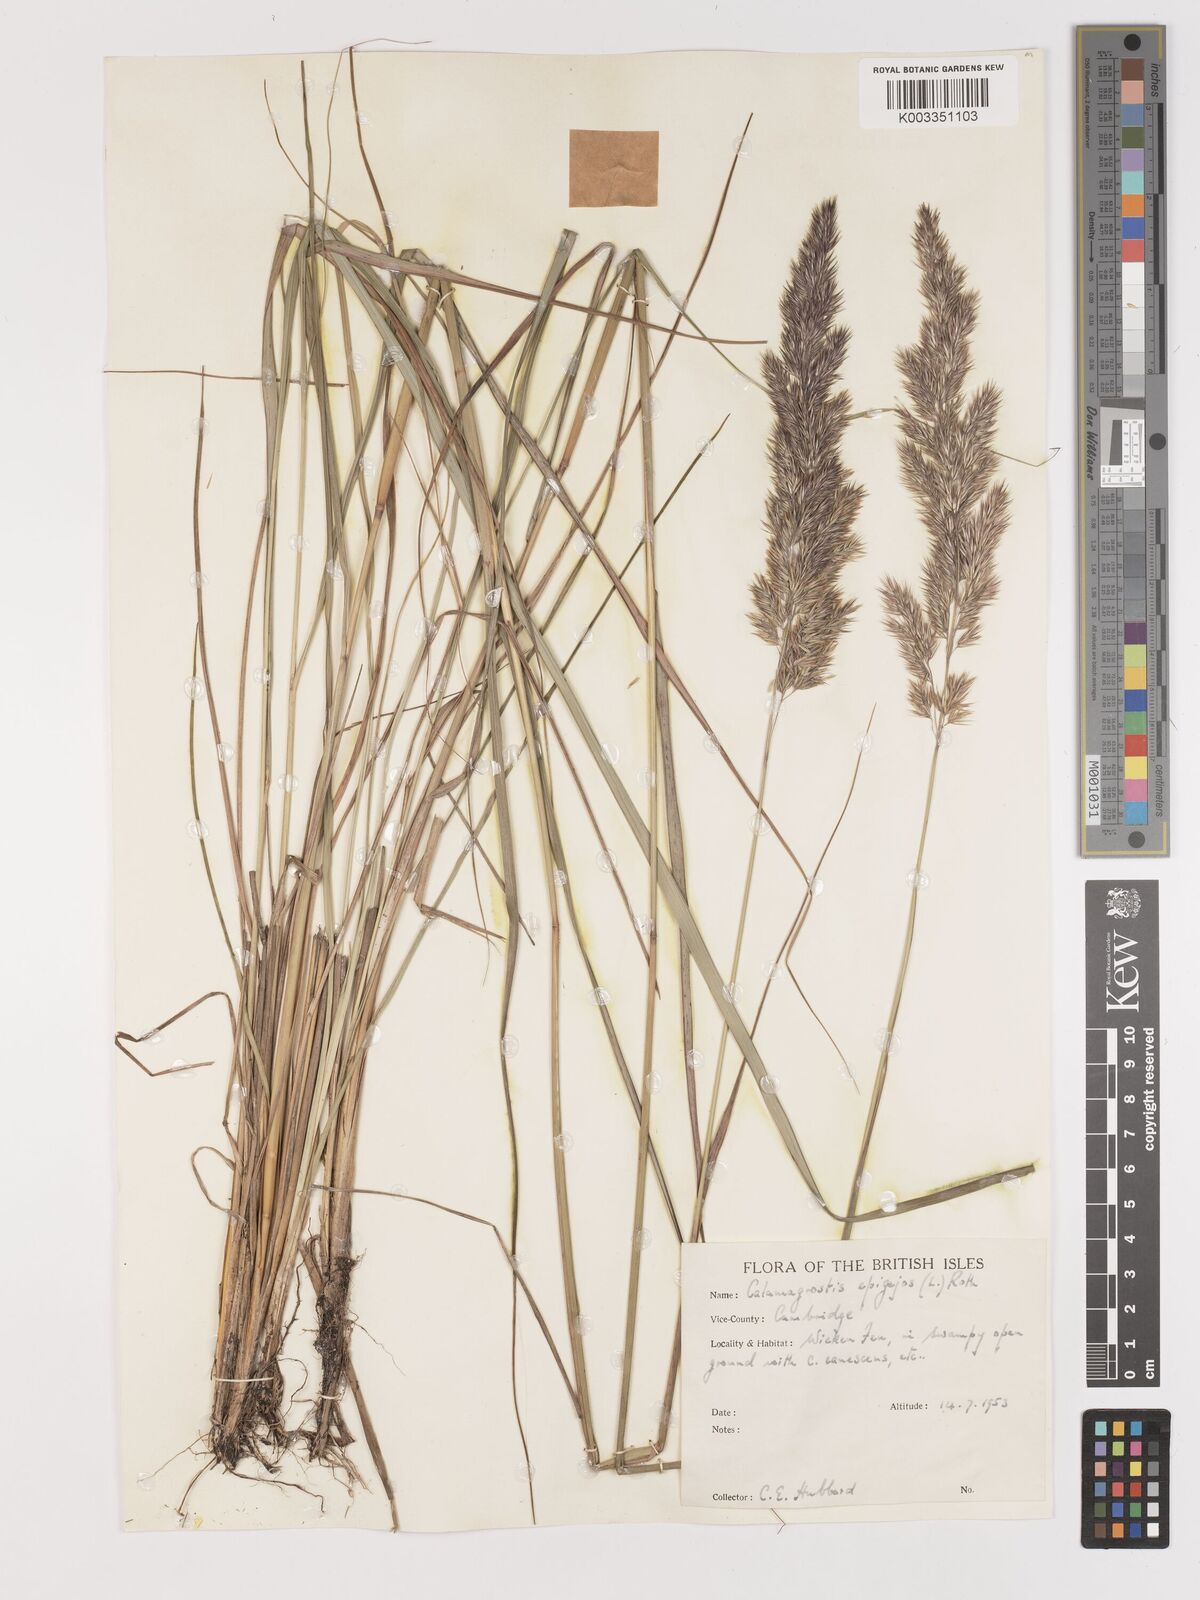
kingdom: Plantae
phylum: Tracheophyta
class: Liliopsida
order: Poales
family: Poaceae
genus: Calamagrostis
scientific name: Calamagrostis
